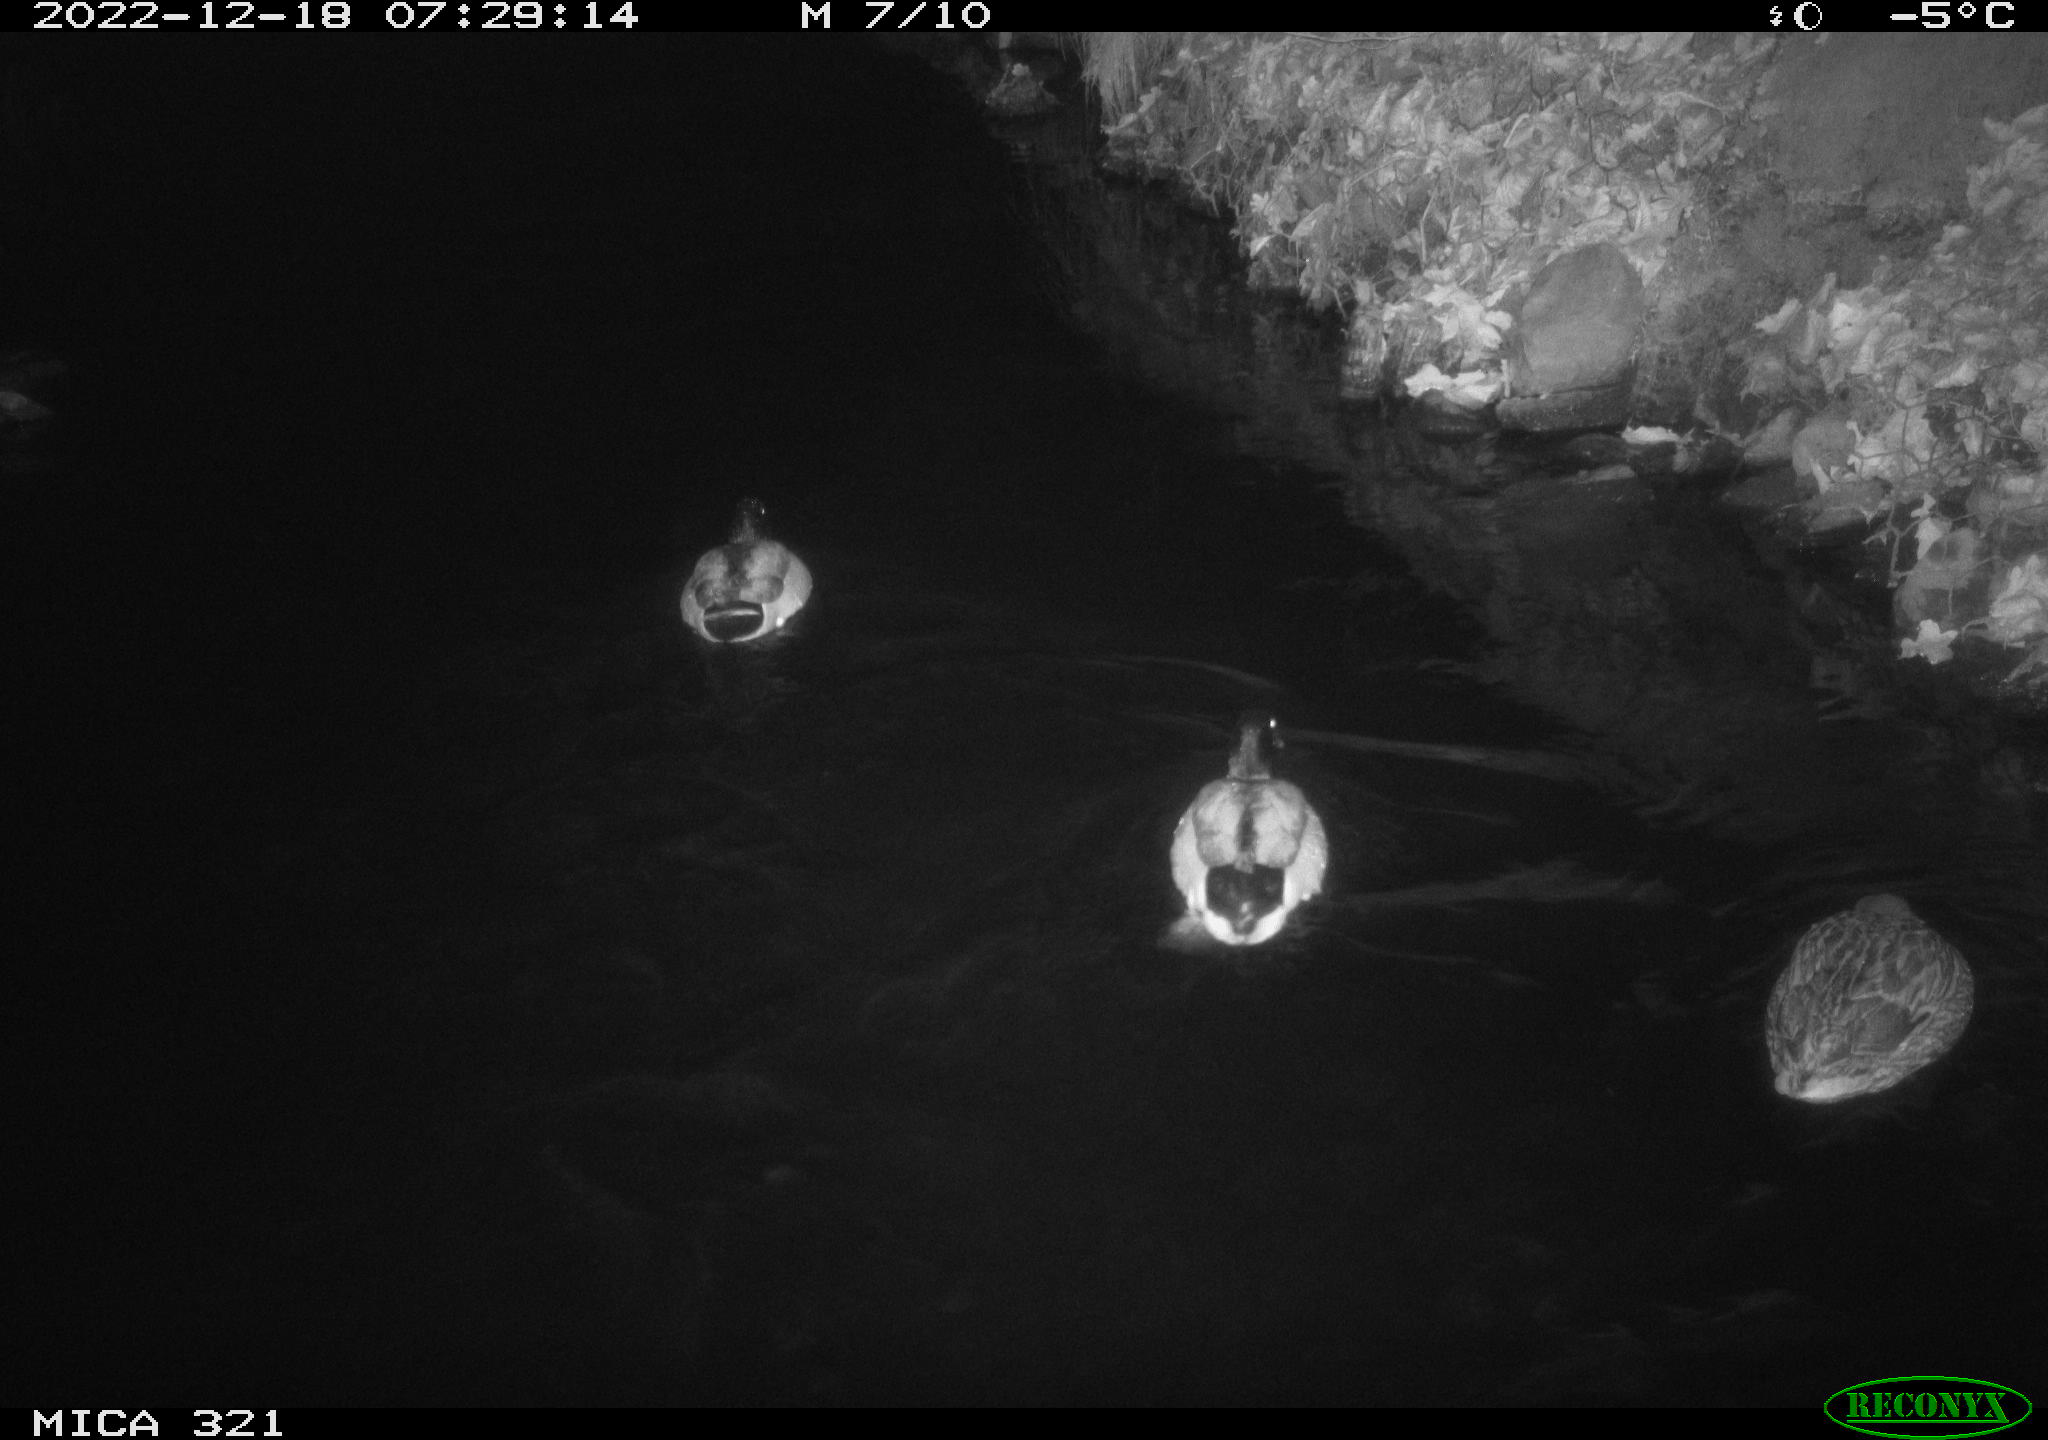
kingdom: Animalia
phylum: Chordata
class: Aves
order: Anseriformes
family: Anatidae
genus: Anas
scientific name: Anas
